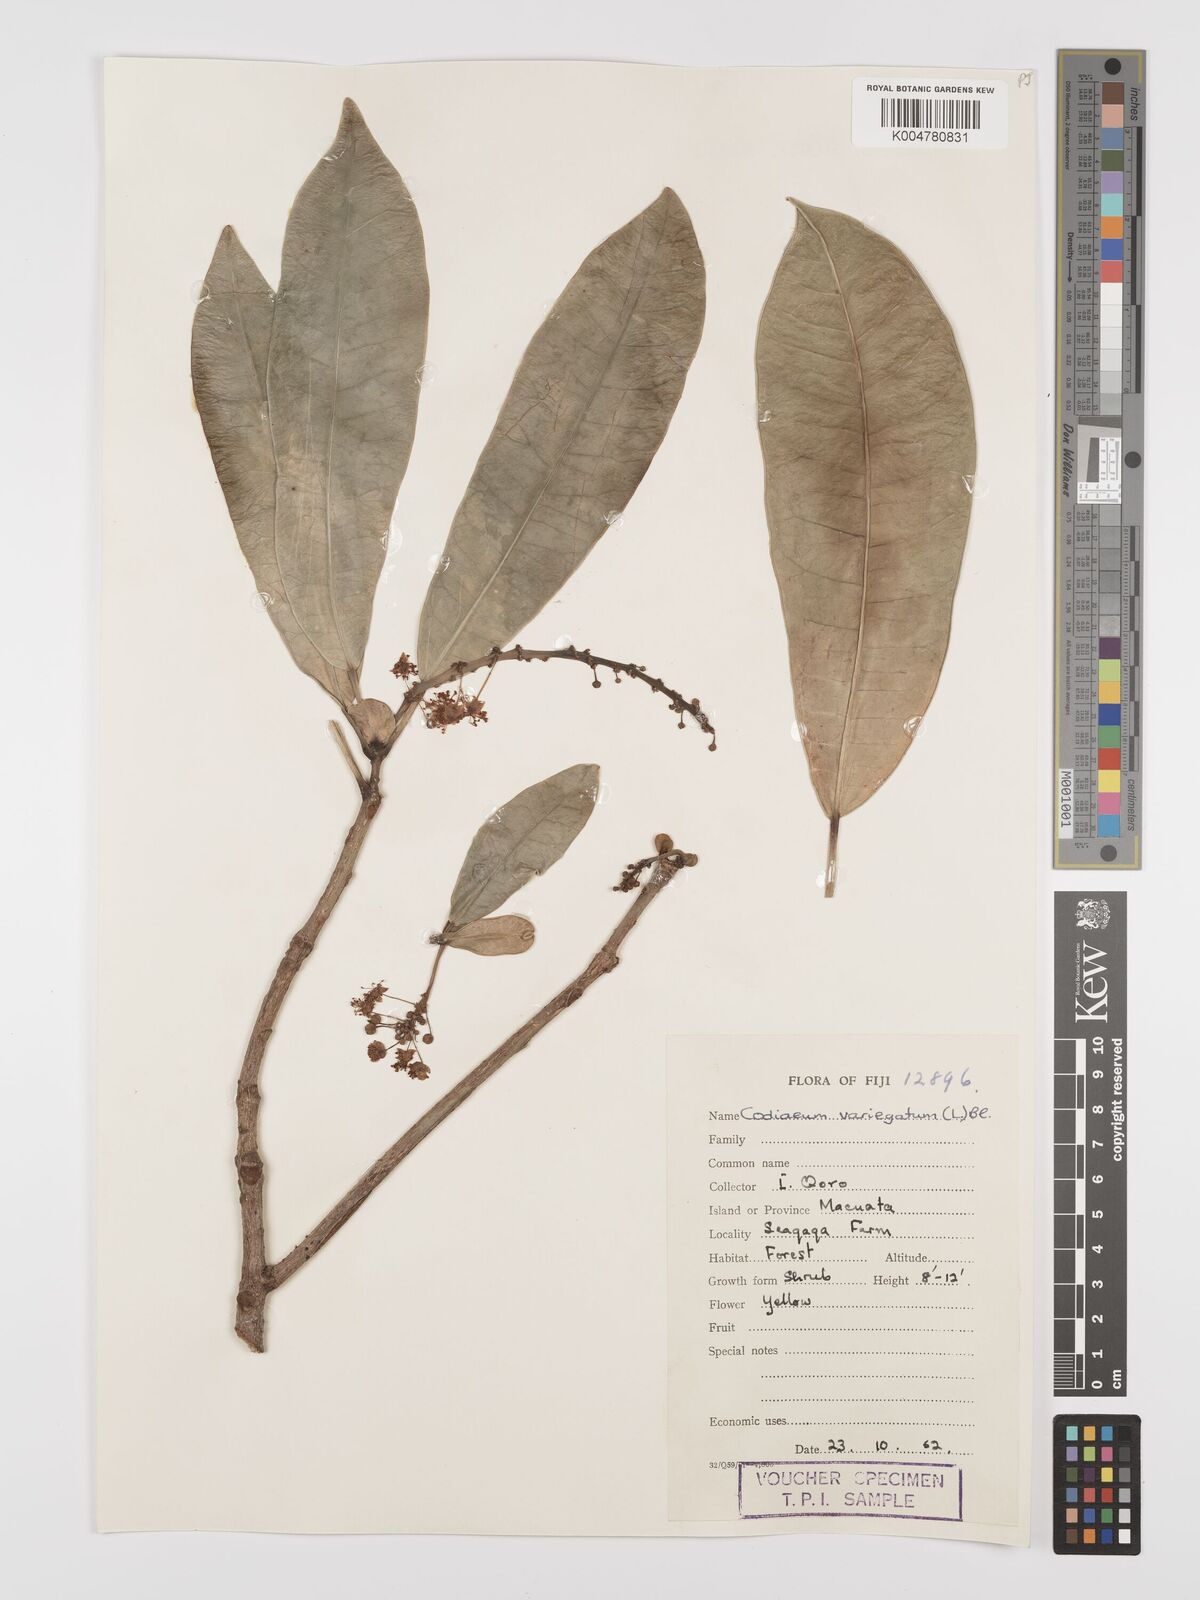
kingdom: Plantae
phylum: Tracheophyta
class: Magnoliopsida
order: Malpighiales
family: Euphorbiaceae
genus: Codiaeum
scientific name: Codiaeum variegatum
